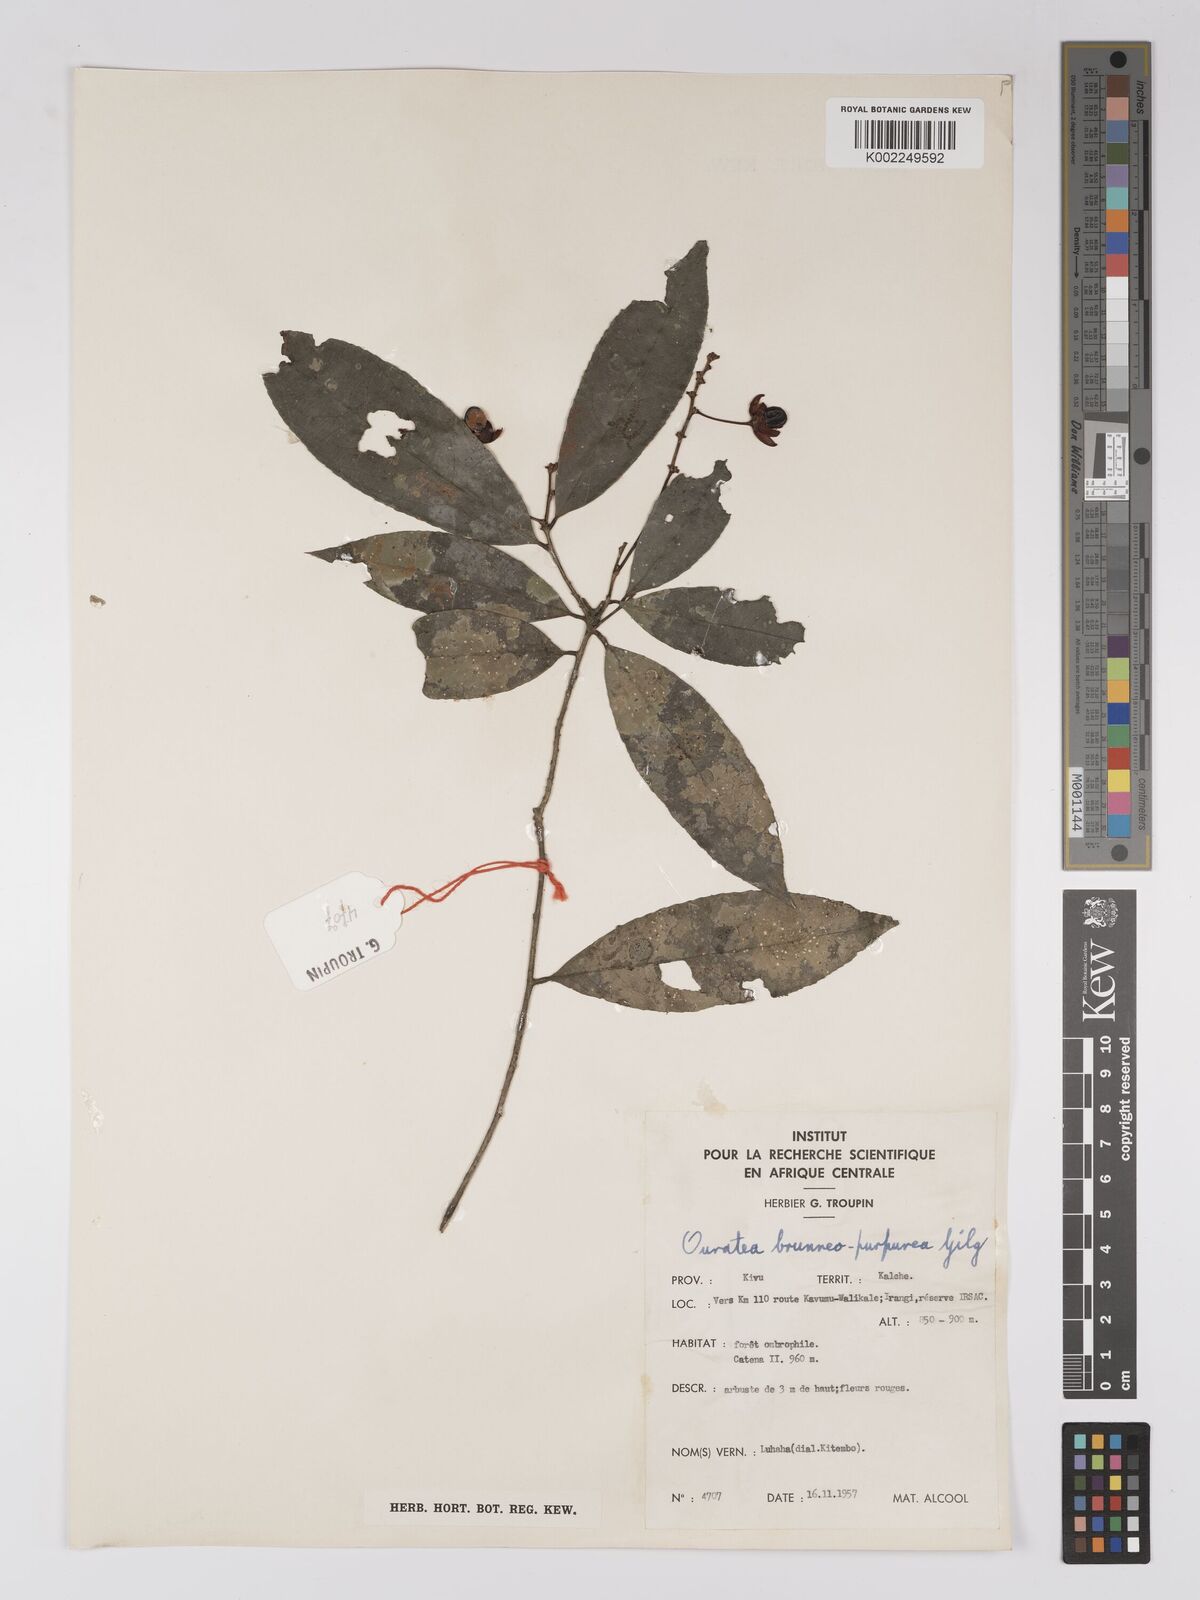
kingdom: Plantae
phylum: Tracheophyta
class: Magnoliopsida
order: Malpighiales
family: Ochnaceae
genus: Campylospermum
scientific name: Campylospermum reticulatum
